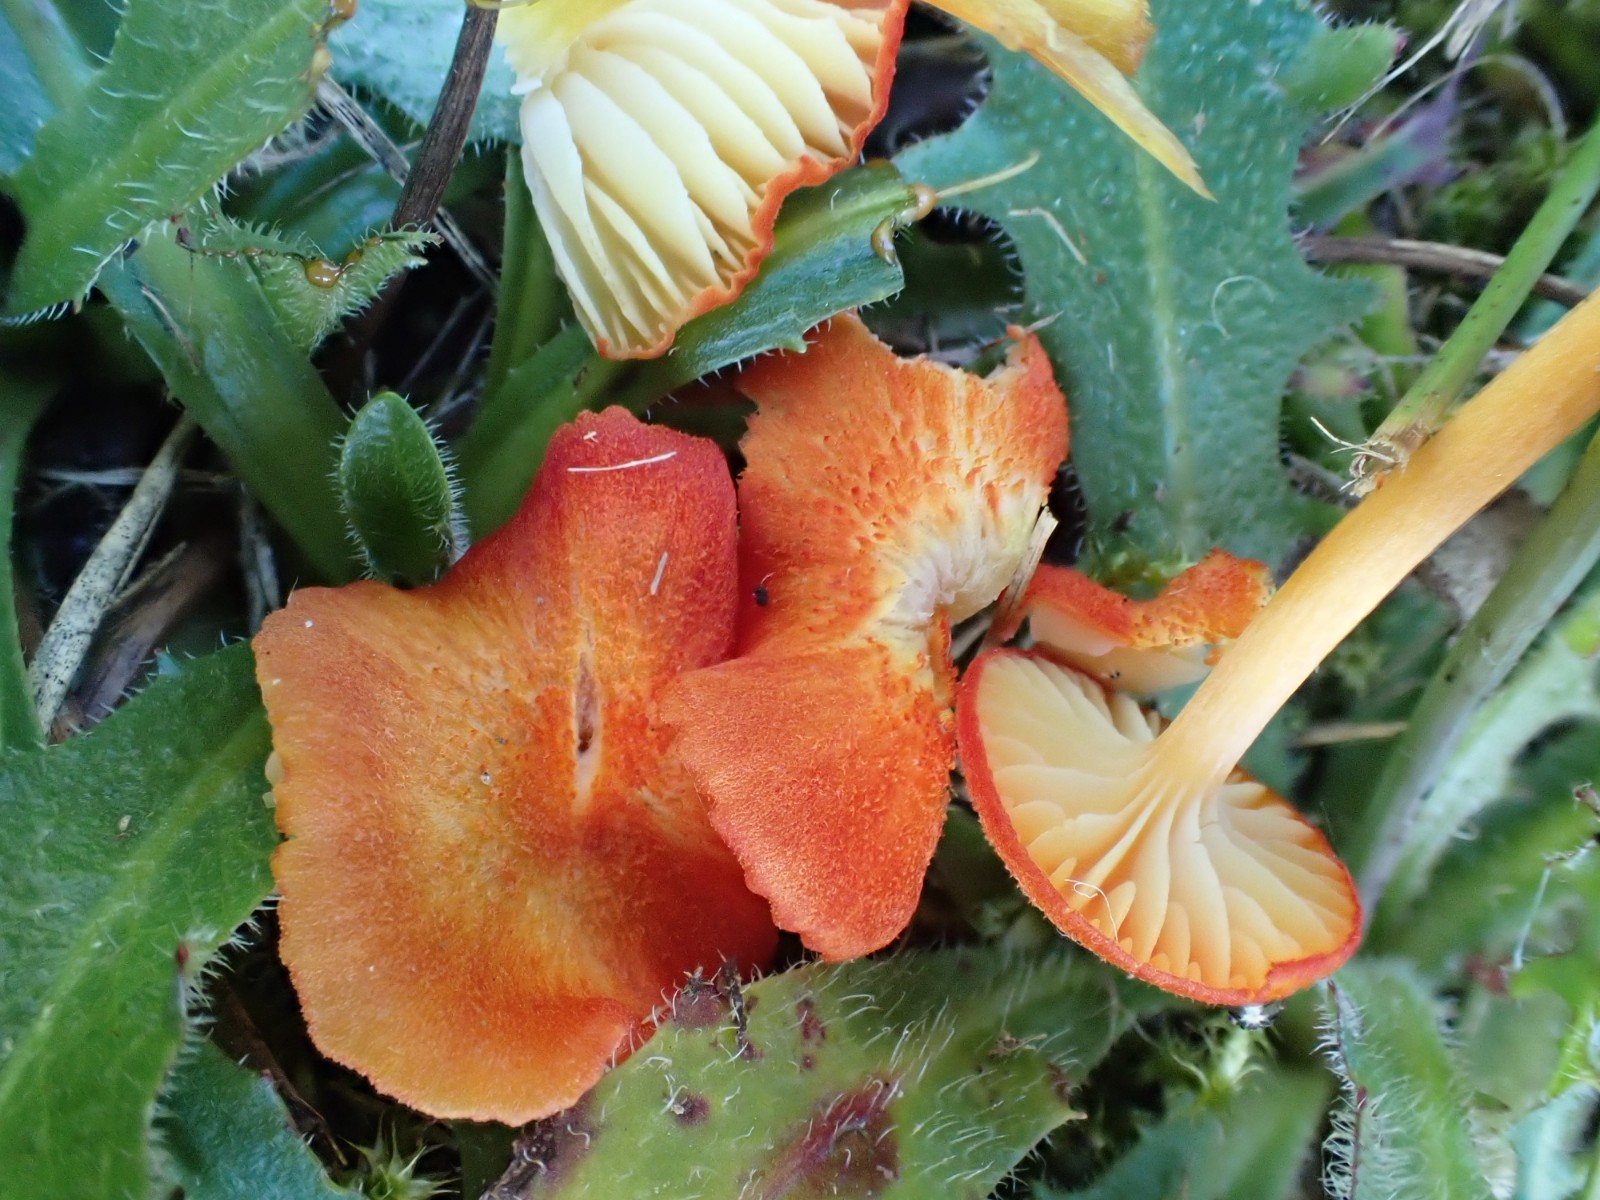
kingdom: Fungi
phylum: Basidiomycota
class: Agaricomycetes
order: Agaricales
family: Hygrophoraceae
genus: Hygrocybe
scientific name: Hygrocybe helobia
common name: hvidløgs-vokshat
